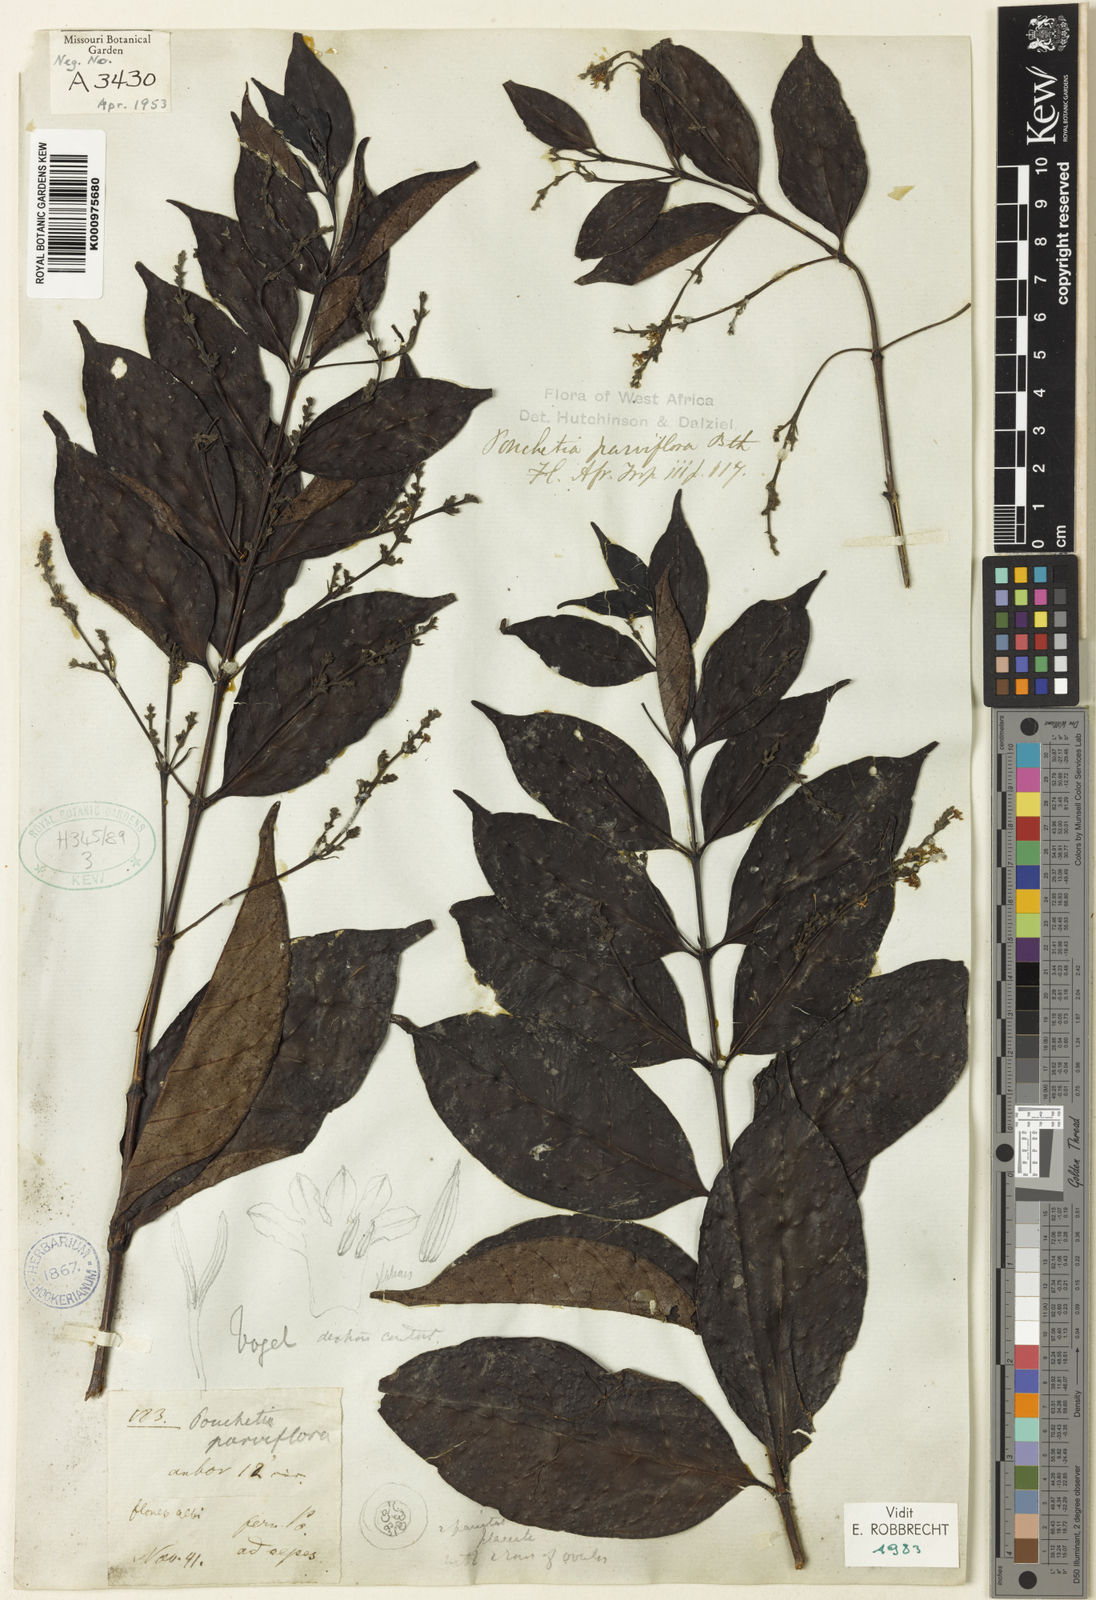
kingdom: Plantae
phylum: Tracheophyta
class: Magnoliopsida
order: Gentianales
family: Rubiaceae
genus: Pouchetia
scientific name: Pouchetia parviflora
